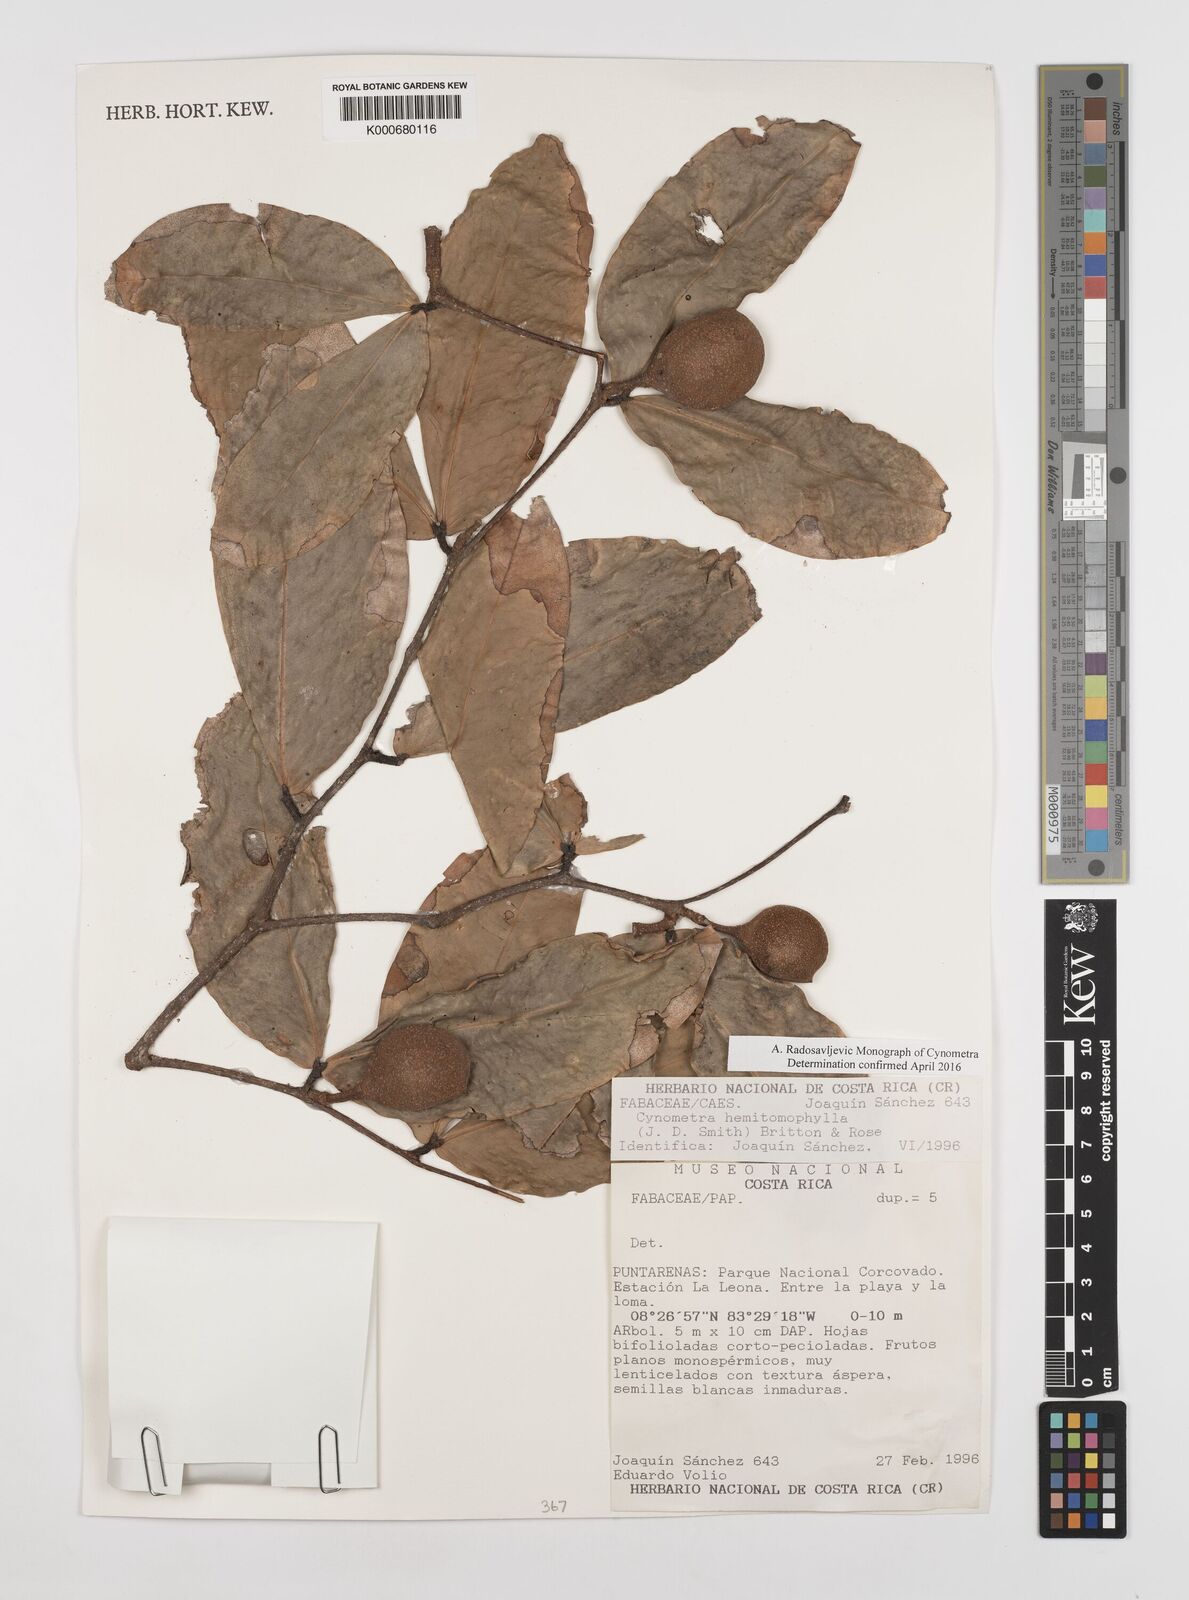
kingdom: Plantae
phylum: Tracheophyta
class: Magnoliopsida
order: Fabales
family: Fabaceae
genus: Cynometra
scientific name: Cynometra hemitomophylla
